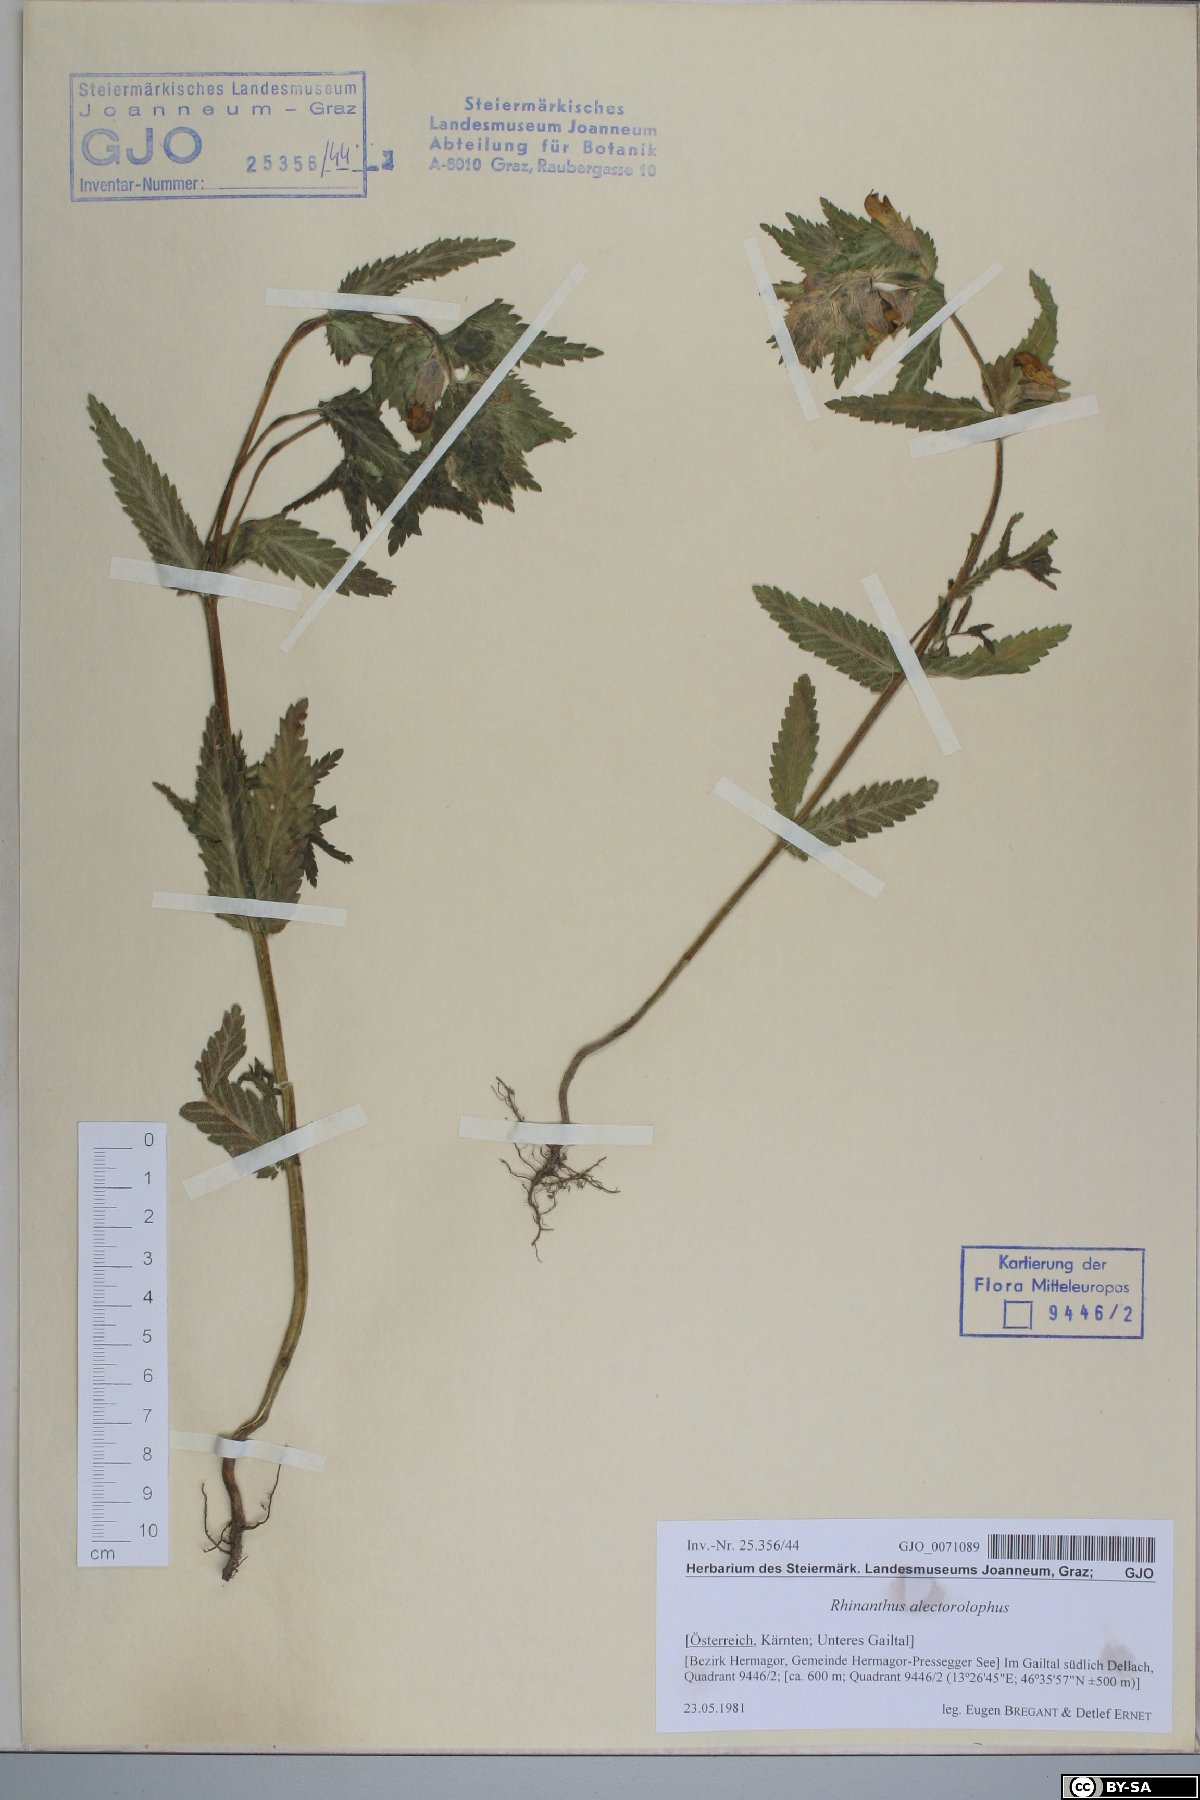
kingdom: Plantae
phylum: Tracheophyta
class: Magnoliopsida
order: Lamiales
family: Orobanchaceae
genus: Rhinanthus
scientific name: Rhinanthus alectorolophus
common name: Greater yellow-rattle
